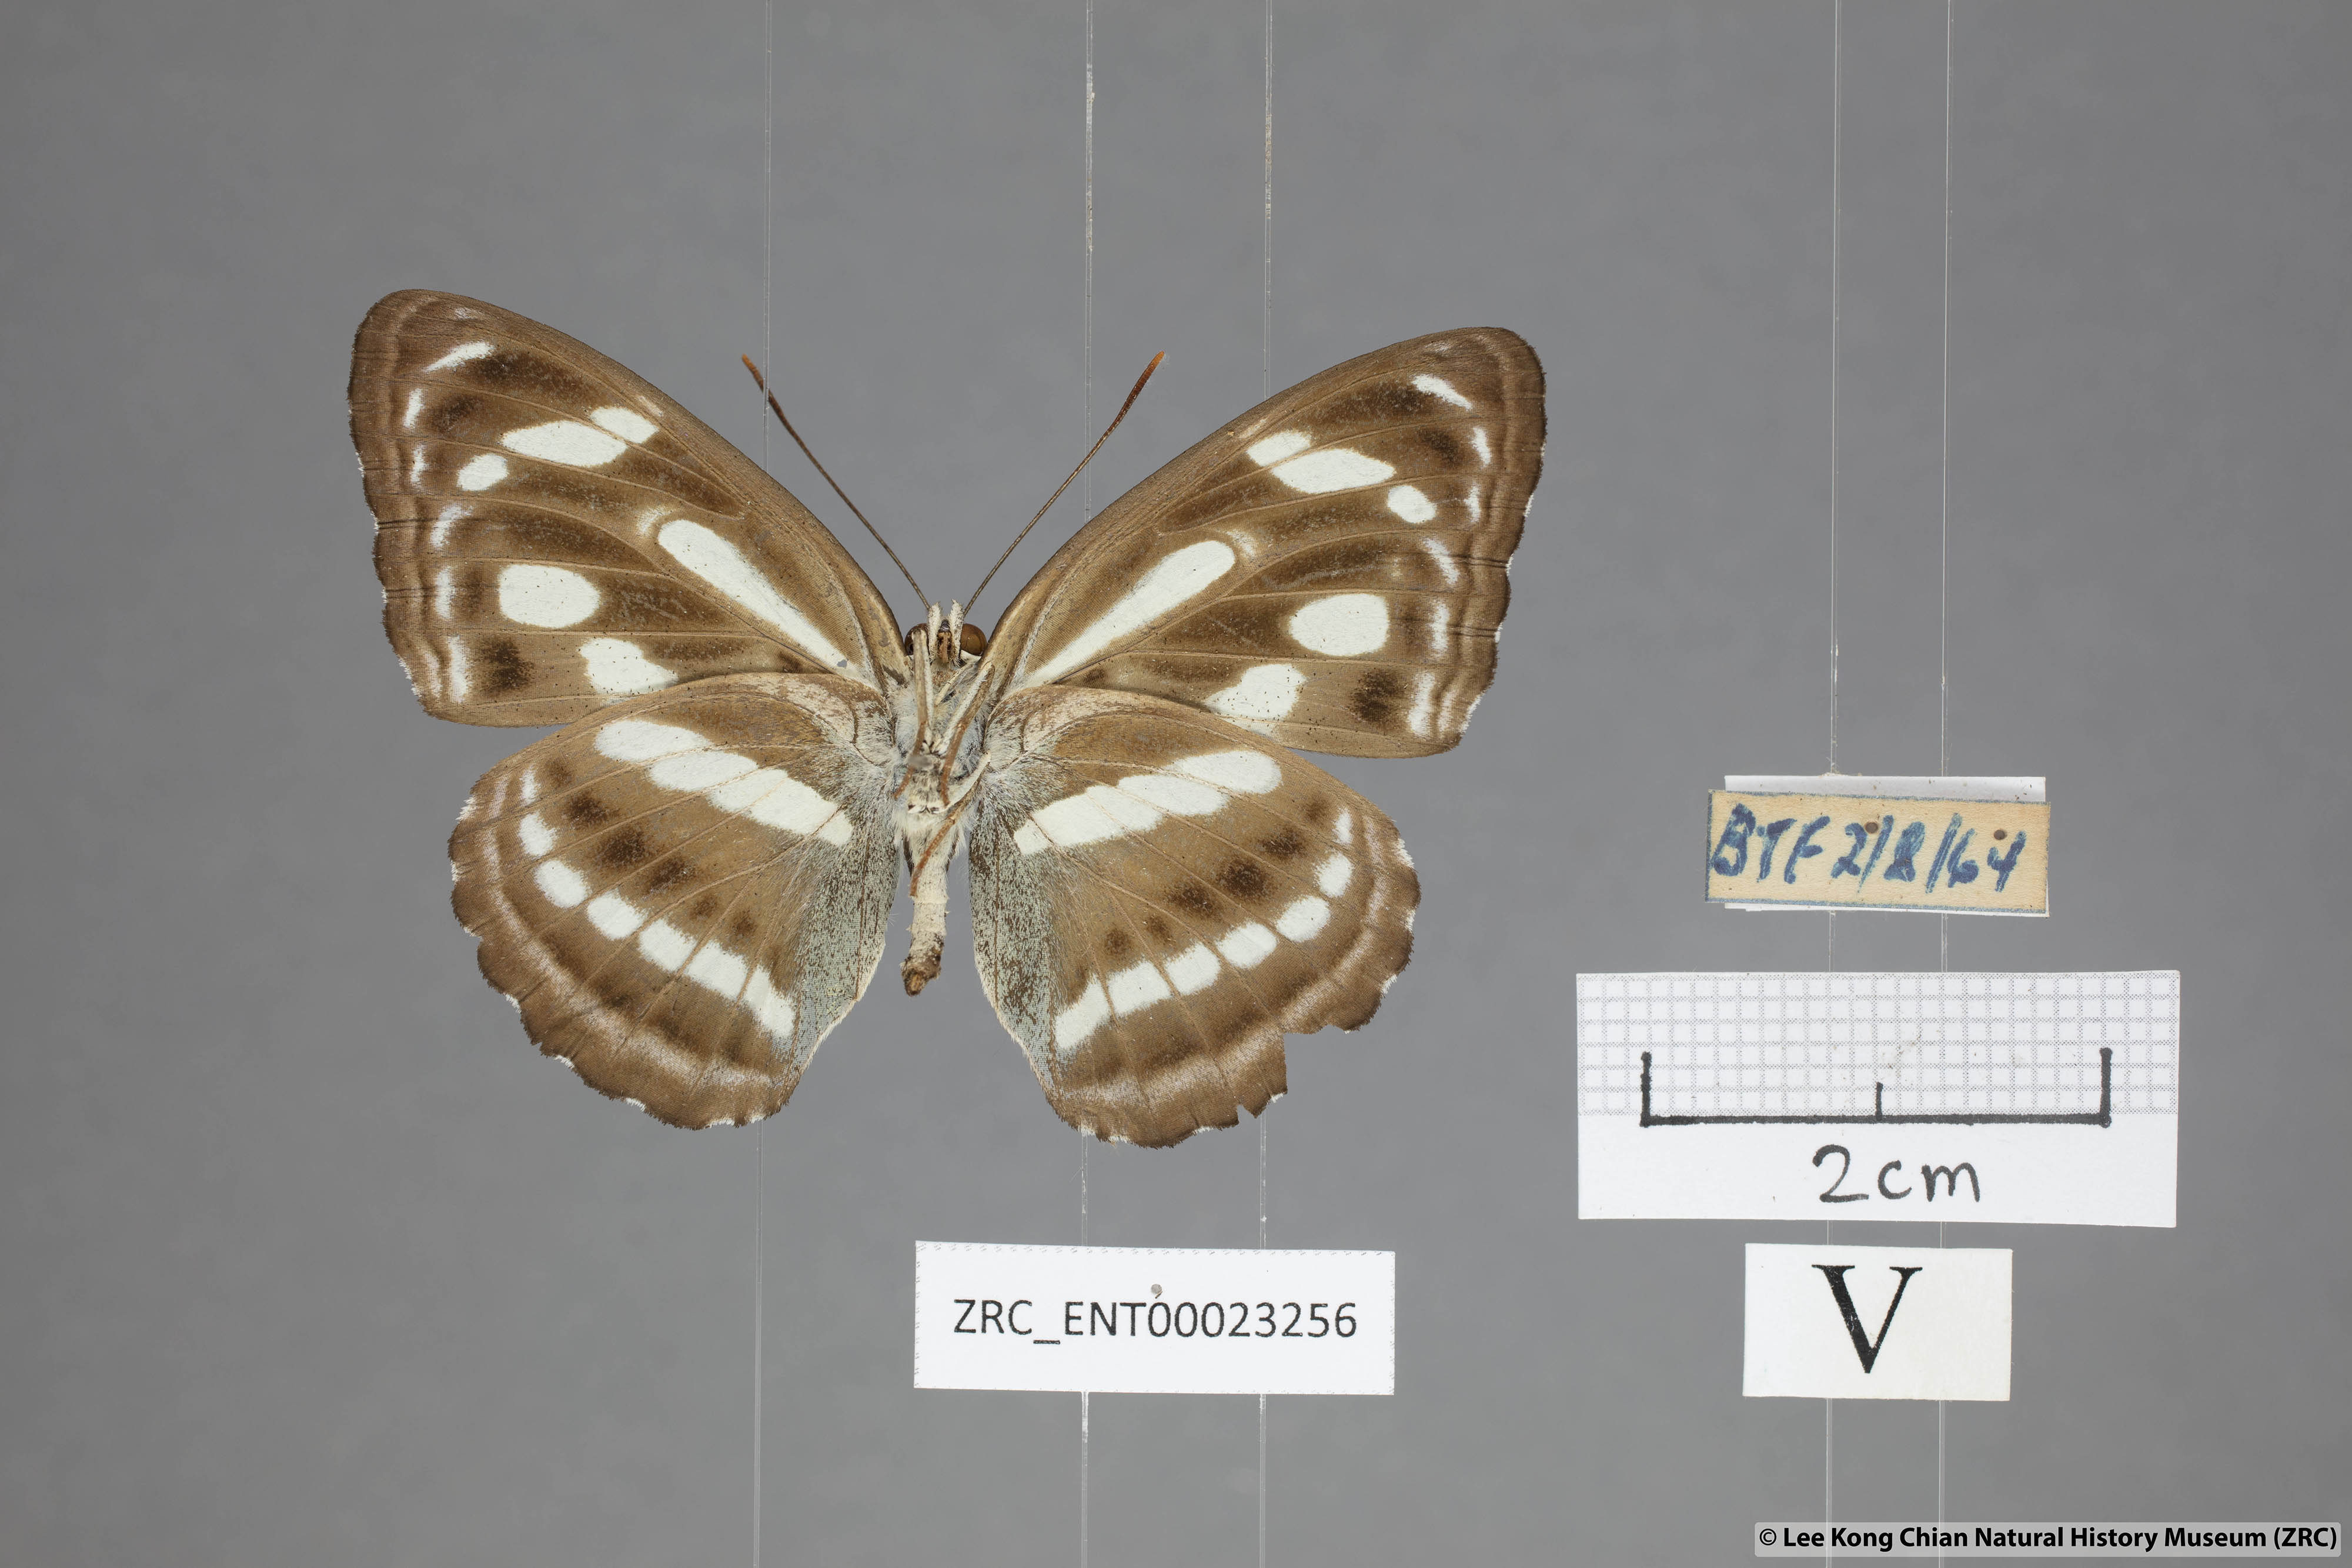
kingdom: Animalia
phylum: Arthropoda
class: Insecta
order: Lepidoptera
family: Nymphalidae
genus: Parathyma
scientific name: Parathyma pravara
